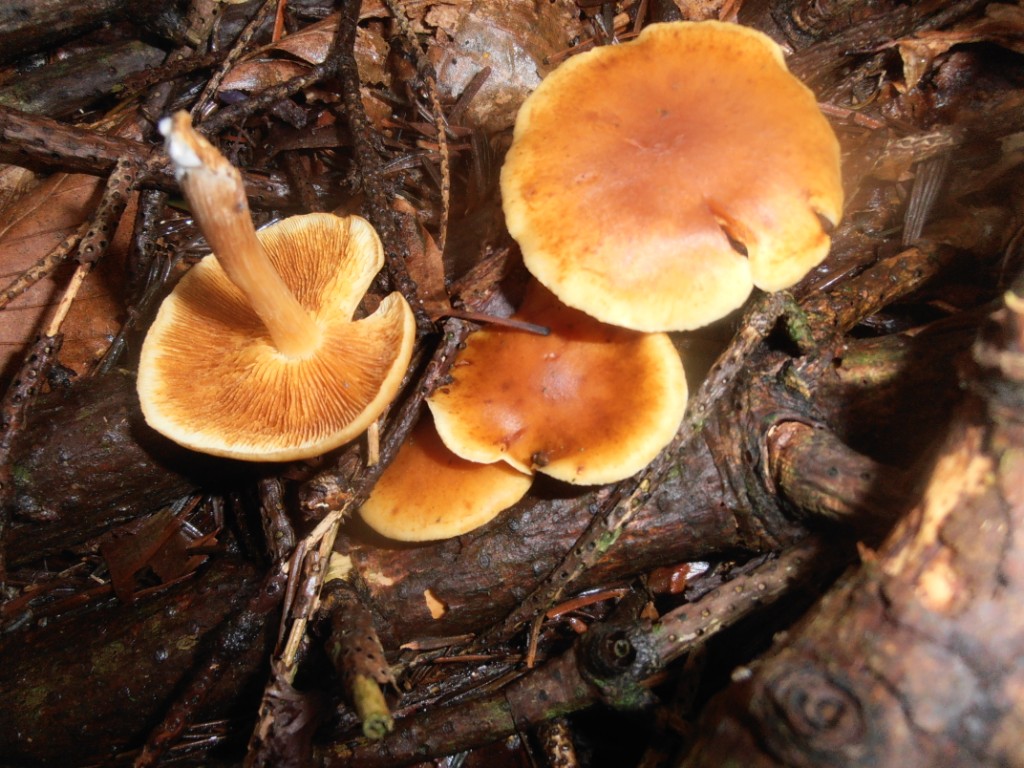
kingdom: Fungi
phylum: Basidiomycota
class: Agaricomycetes
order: Agaricales
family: Hymenogastraceae
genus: Gymnopilus
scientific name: Gymnopilus penetrans
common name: plettet flammehat
